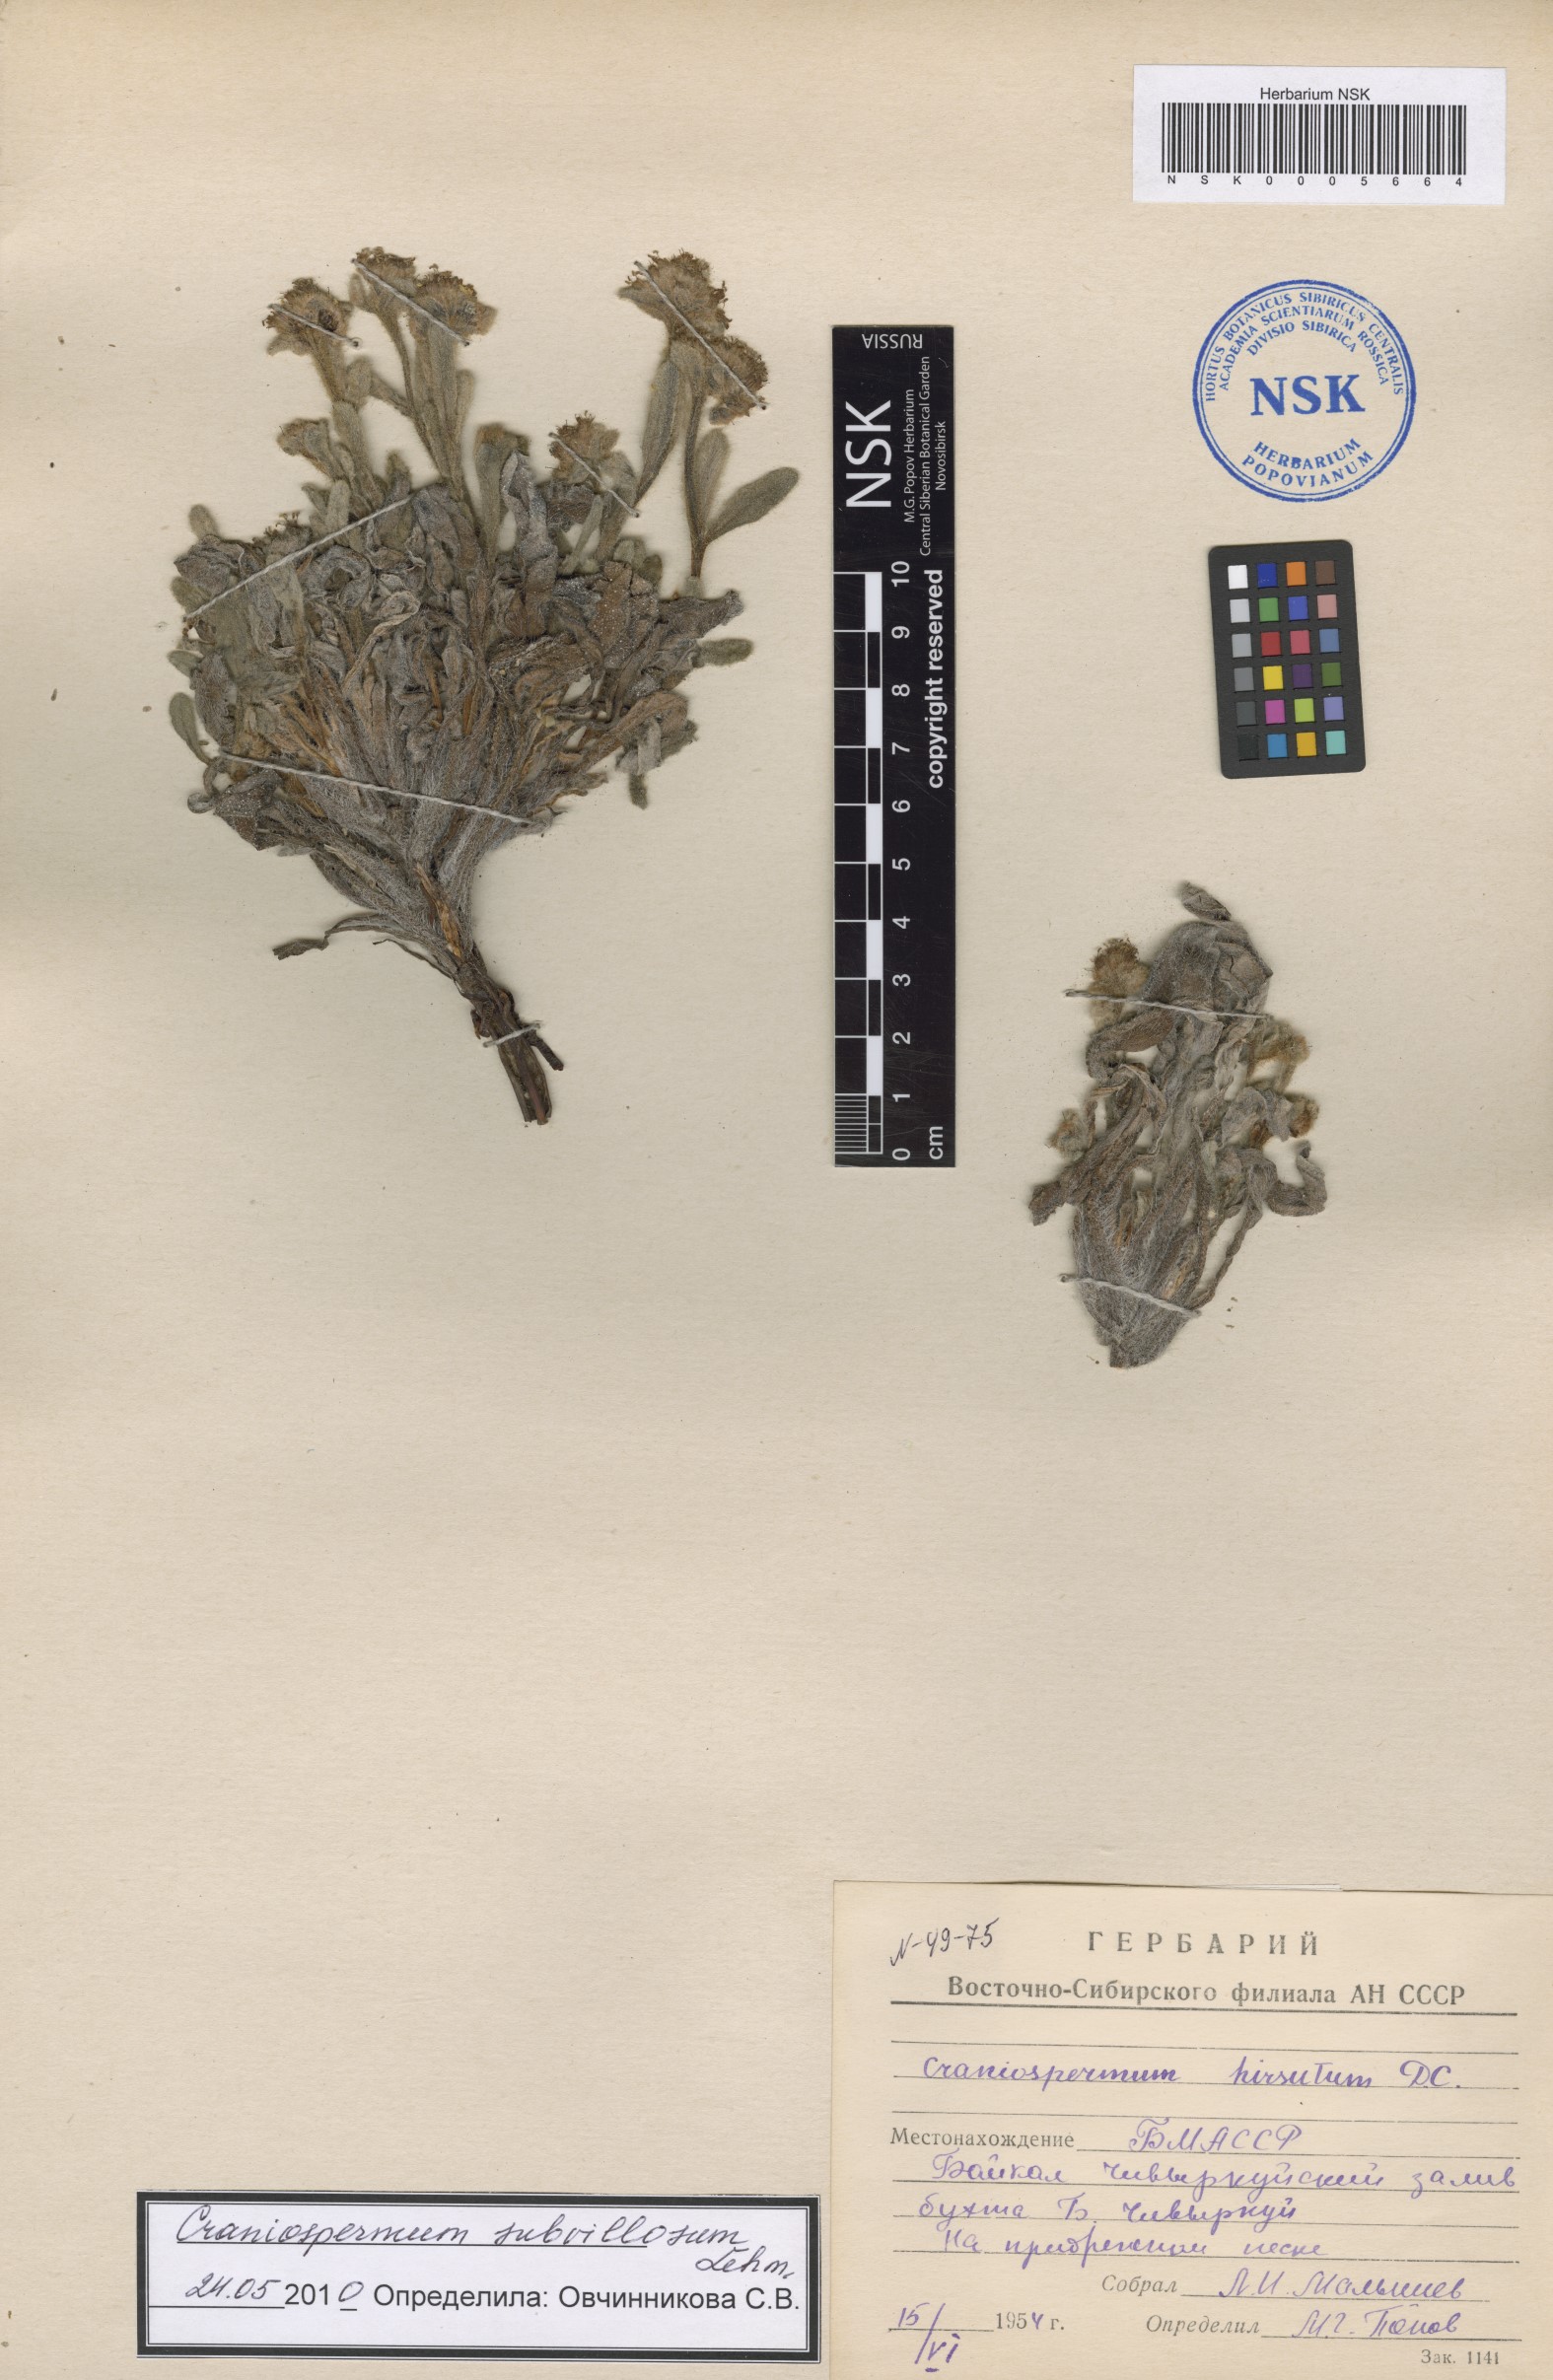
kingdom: Plantae
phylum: Tracheophyta
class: Magnoliopsida
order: Boraginales
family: Boraginaceae
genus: Craniospermum
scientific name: Craniospermum subvillosum
